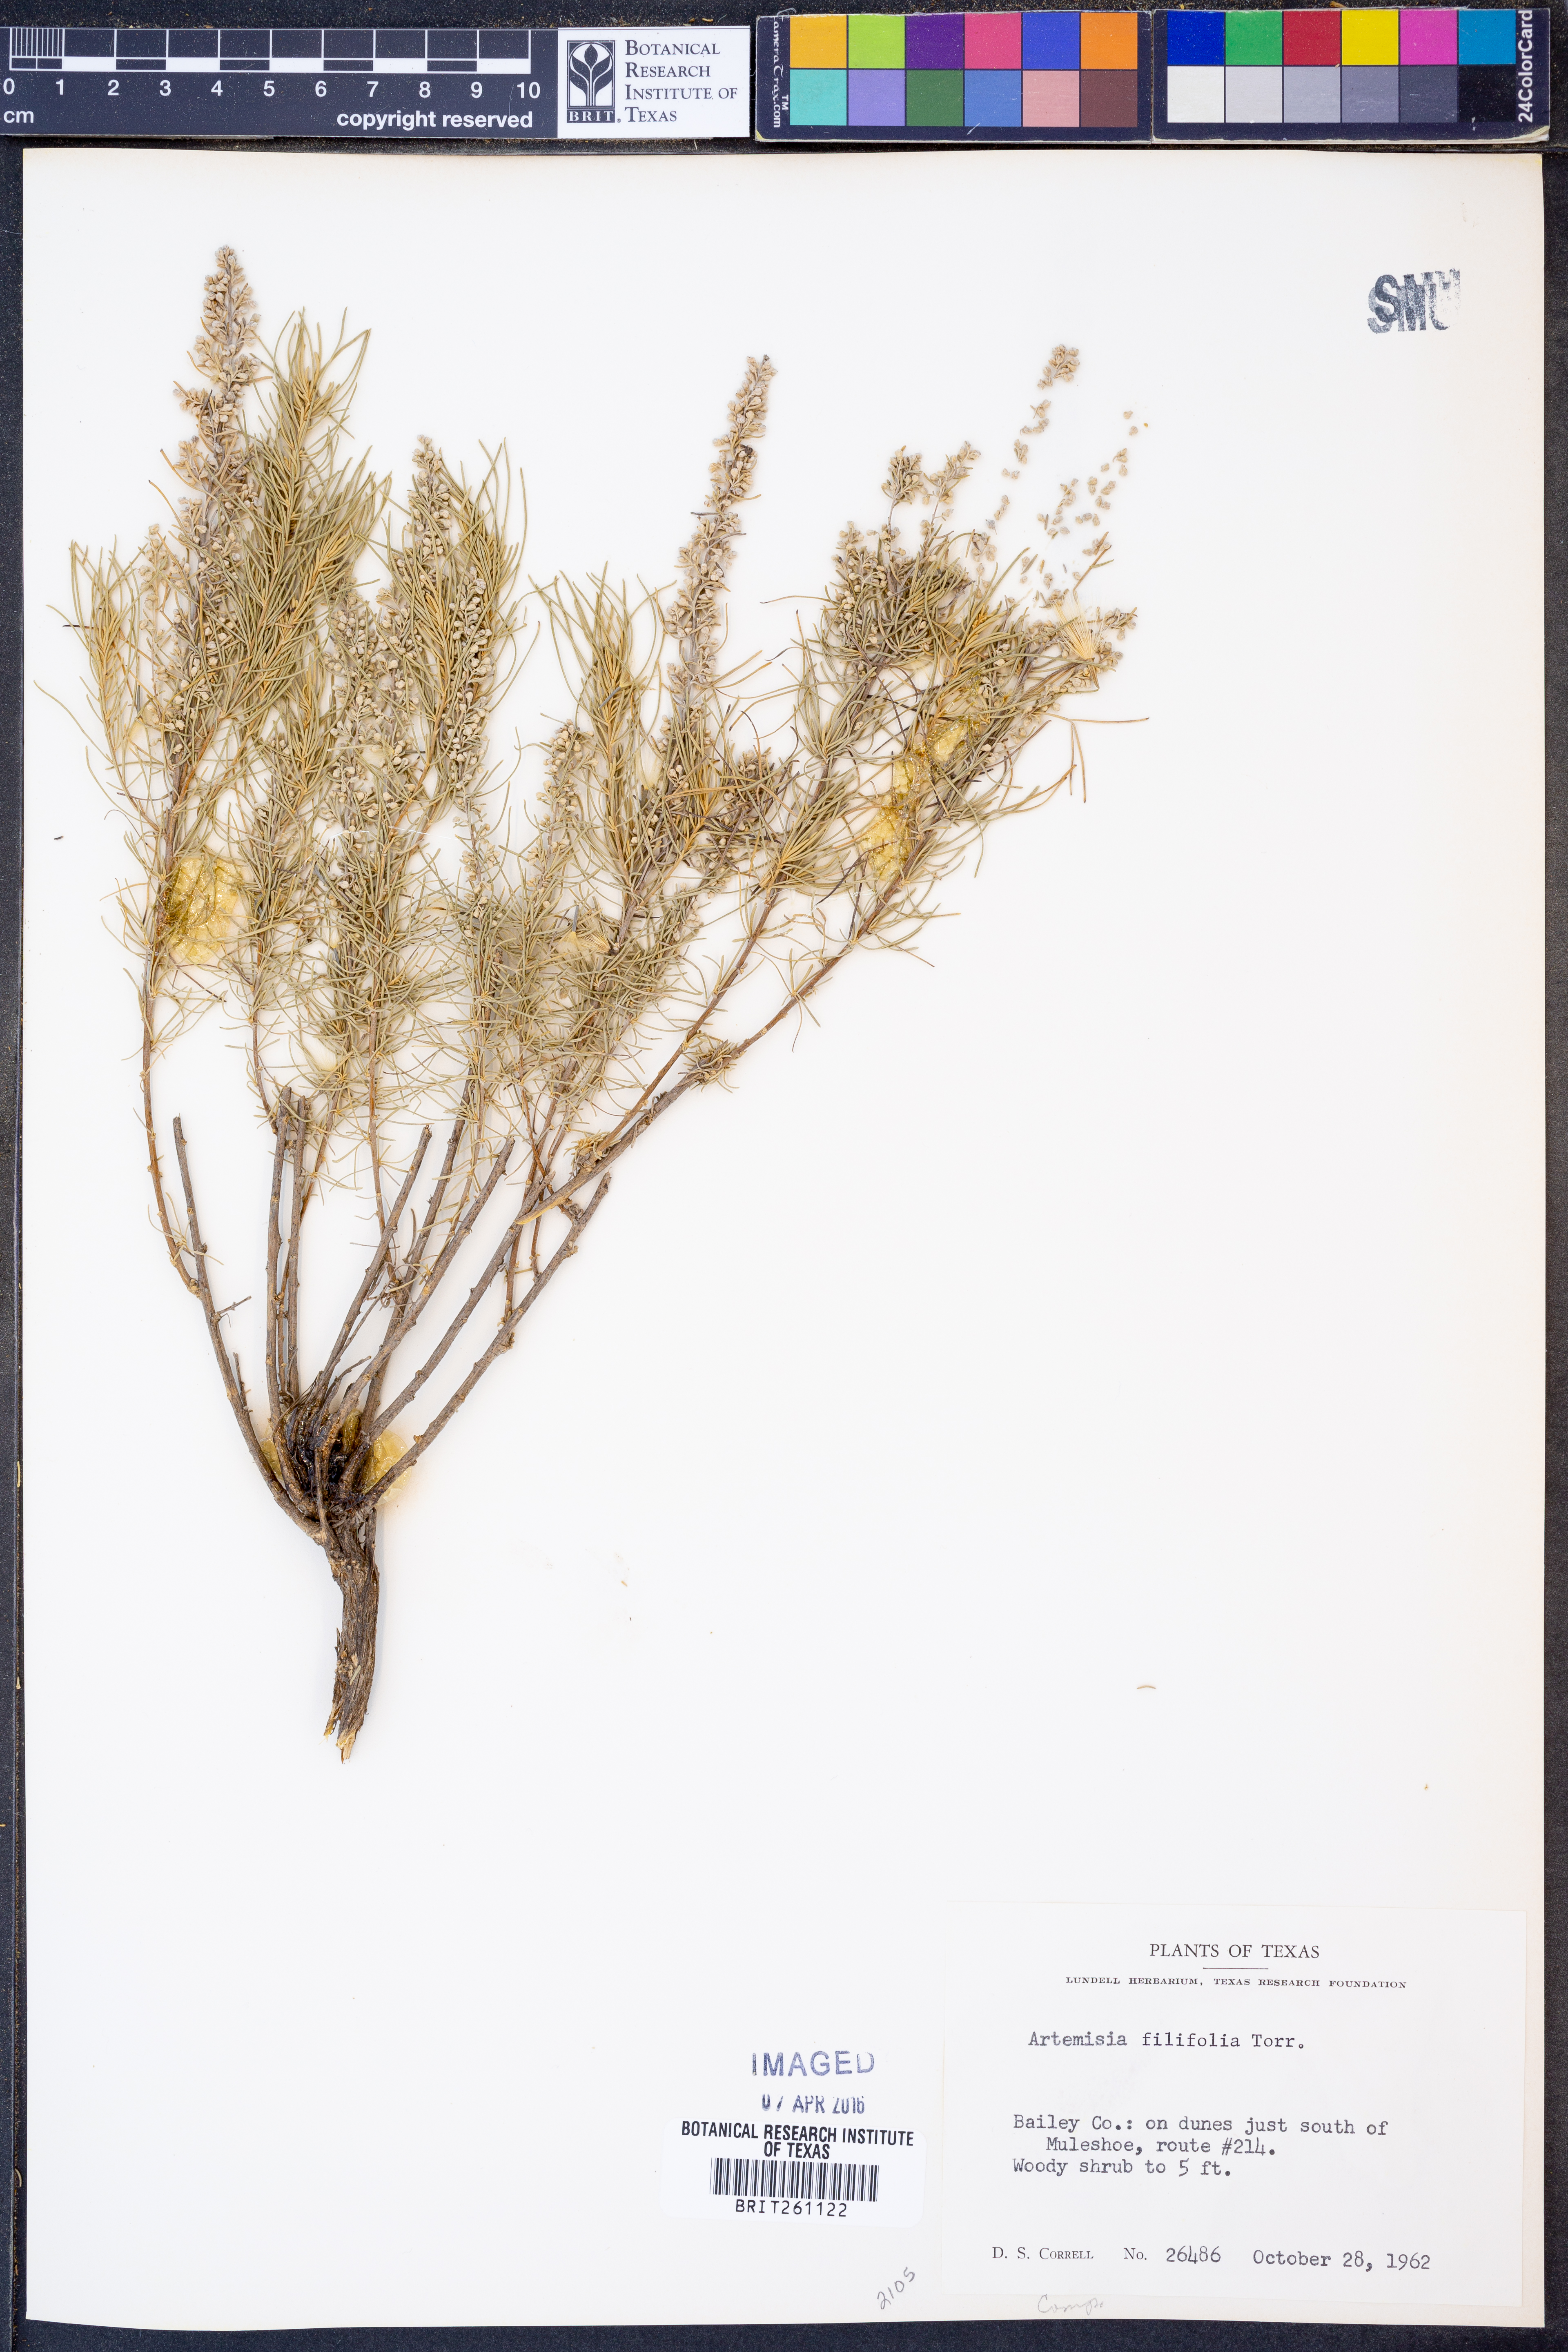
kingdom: Plantae
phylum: Tracheophyta
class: Magnoliopsida
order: Asterales
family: Asteraceae
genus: Artemisia
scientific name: Artemisia filifolia
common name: Sand-sage
